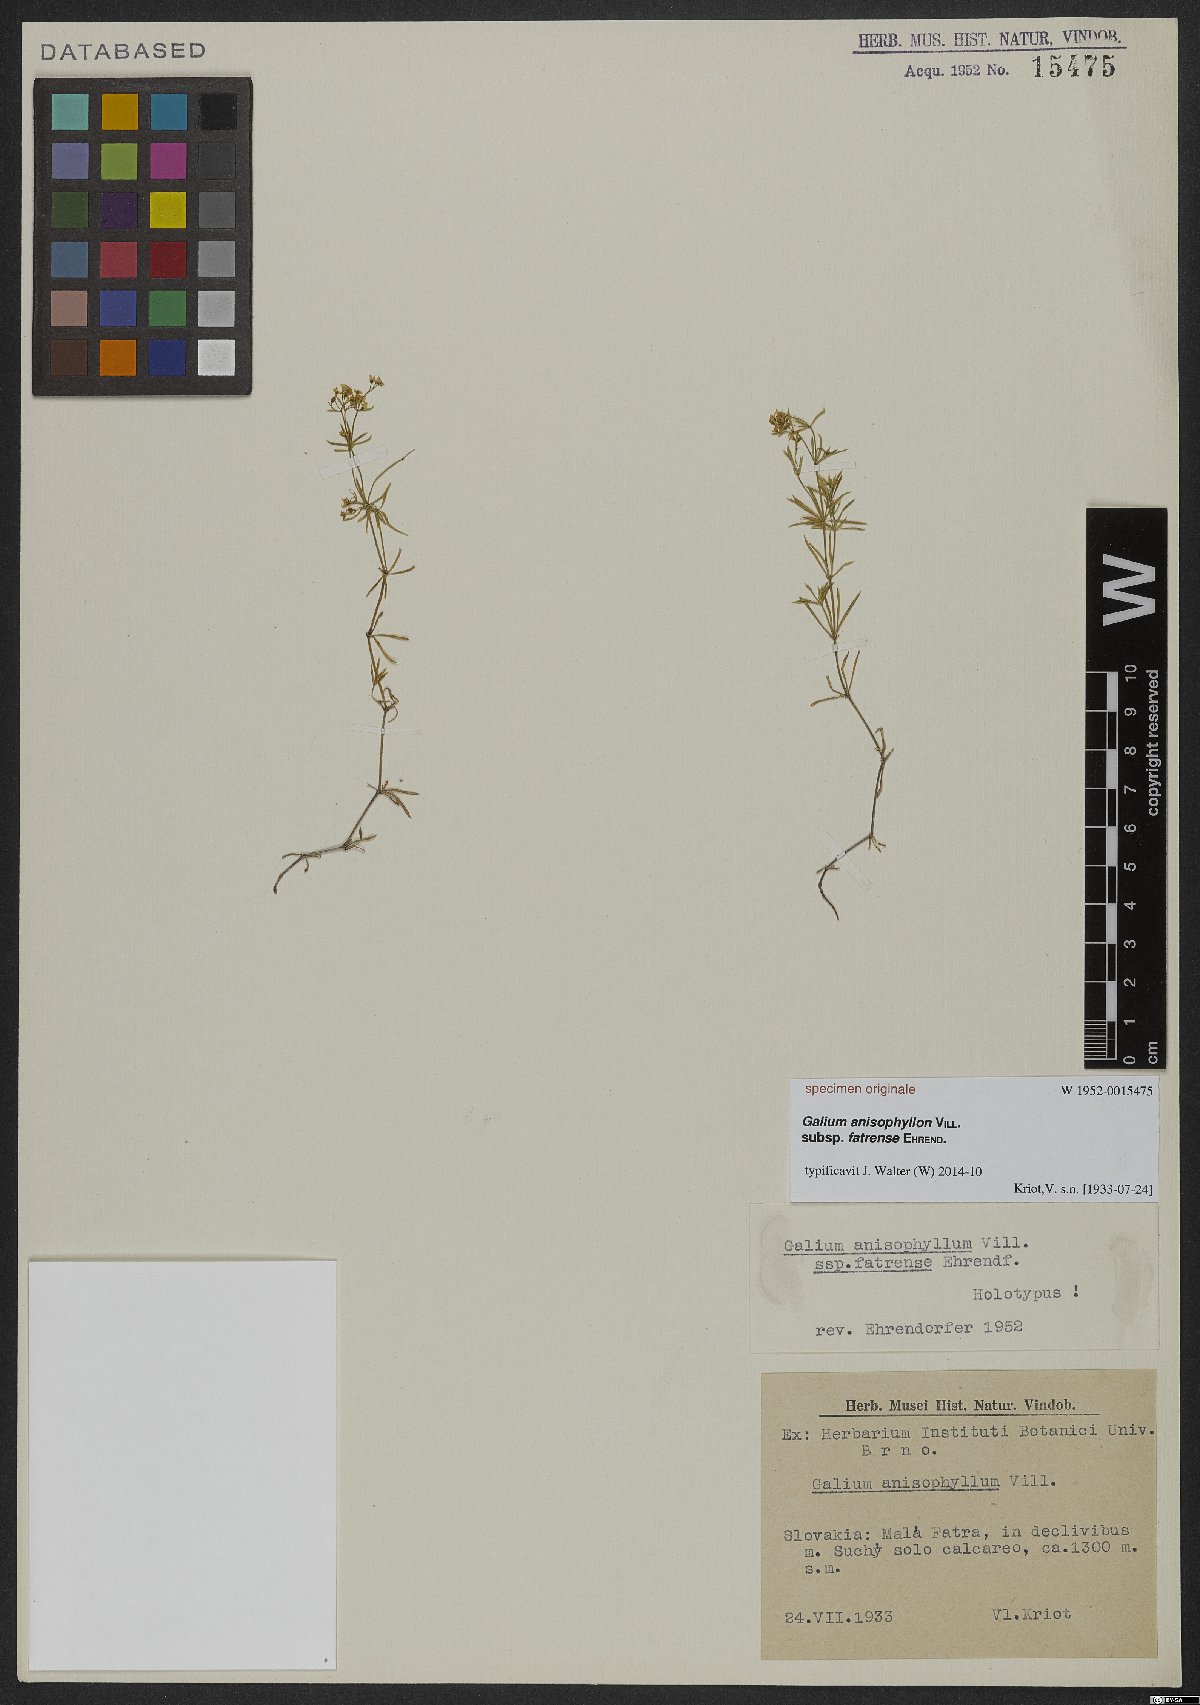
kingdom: Plantae
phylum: Tracheophyta
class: Magnoliopsida
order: Gentianales
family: Rubiaceae
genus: Galium
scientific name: Galium anisophyllon
